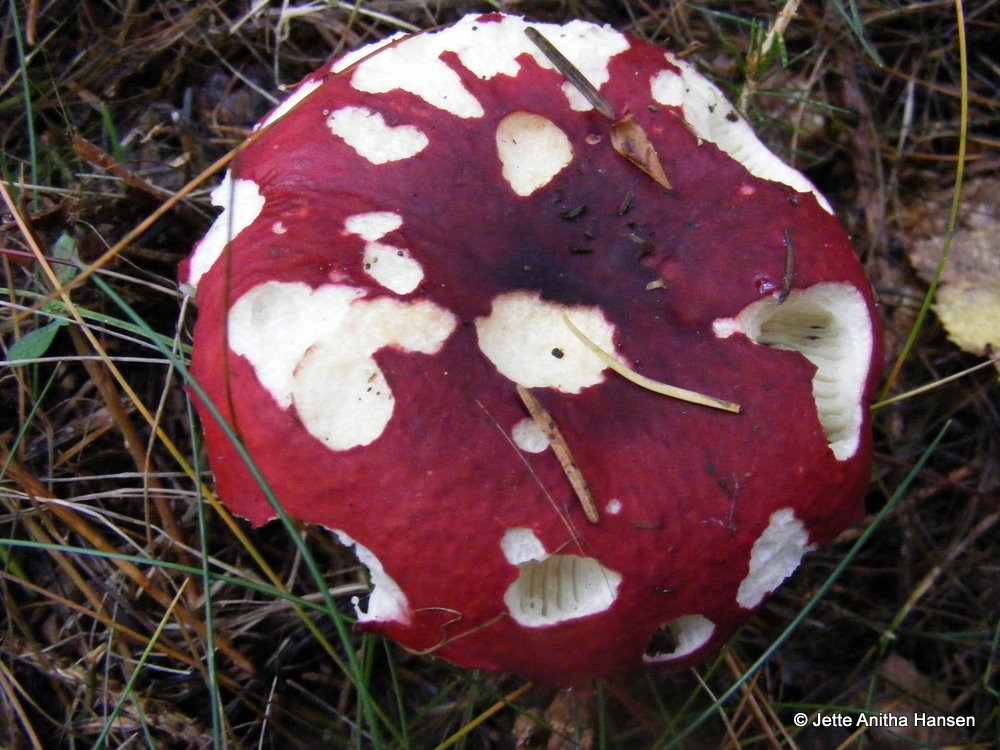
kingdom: Fungi
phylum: Basidiomycota
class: Agaricomycetes
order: Russulales
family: Russulaceae
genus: Russula
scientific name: Russula xerampelina
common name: hummer-skørhat
